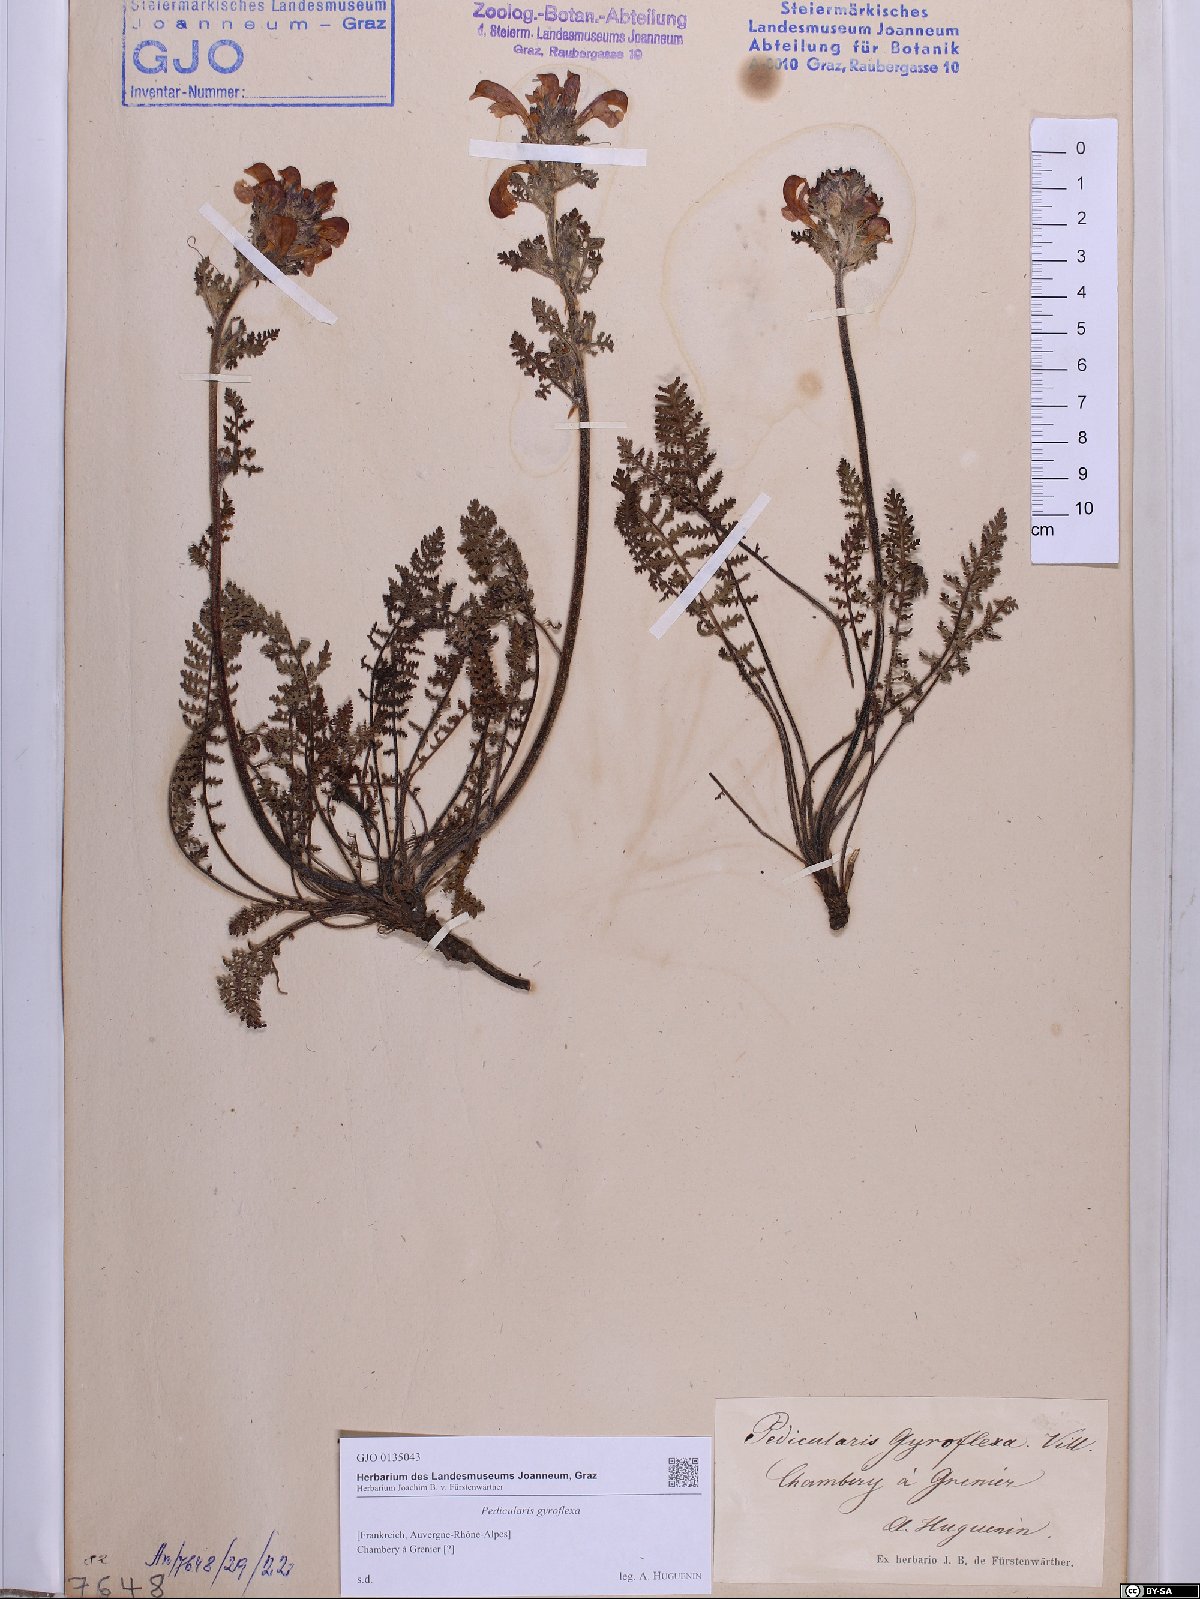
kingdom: Plantae
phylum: Tracheophyta
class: Magnoliopsida
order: Lamiales
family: Orobanchaceae
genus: Pedicularis
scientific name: Pedicularis gyroflexa
